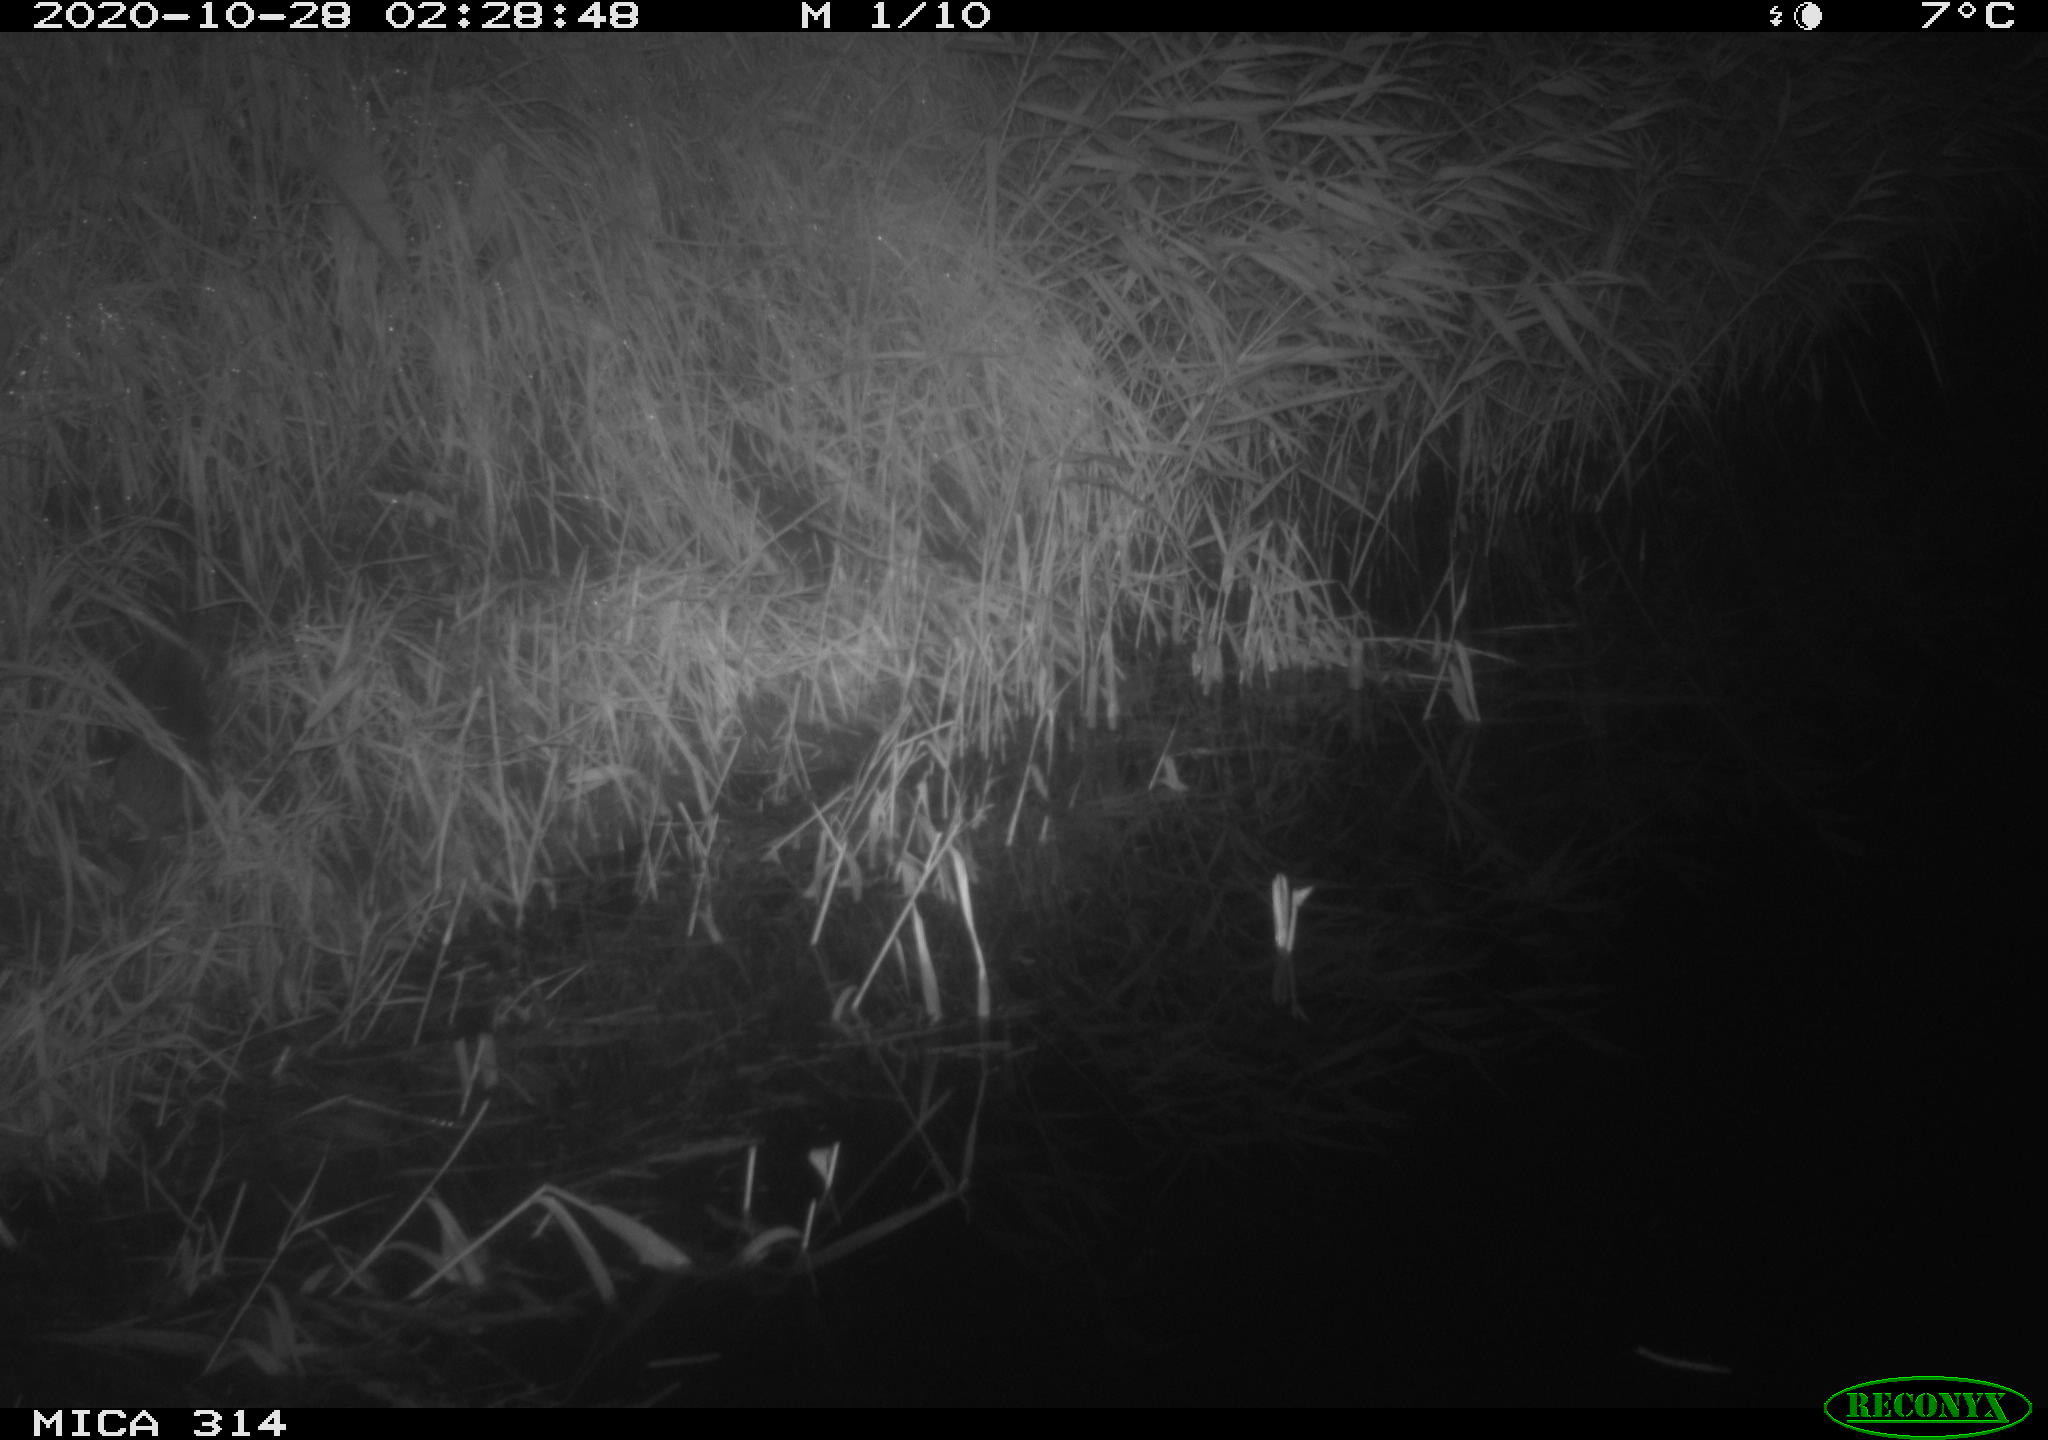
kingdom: Animalia
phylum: Chordata
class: Mammalia
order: Rodentia
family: Muridae
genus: Rattus
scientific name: Rattus norvegicus
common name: Brown rat
